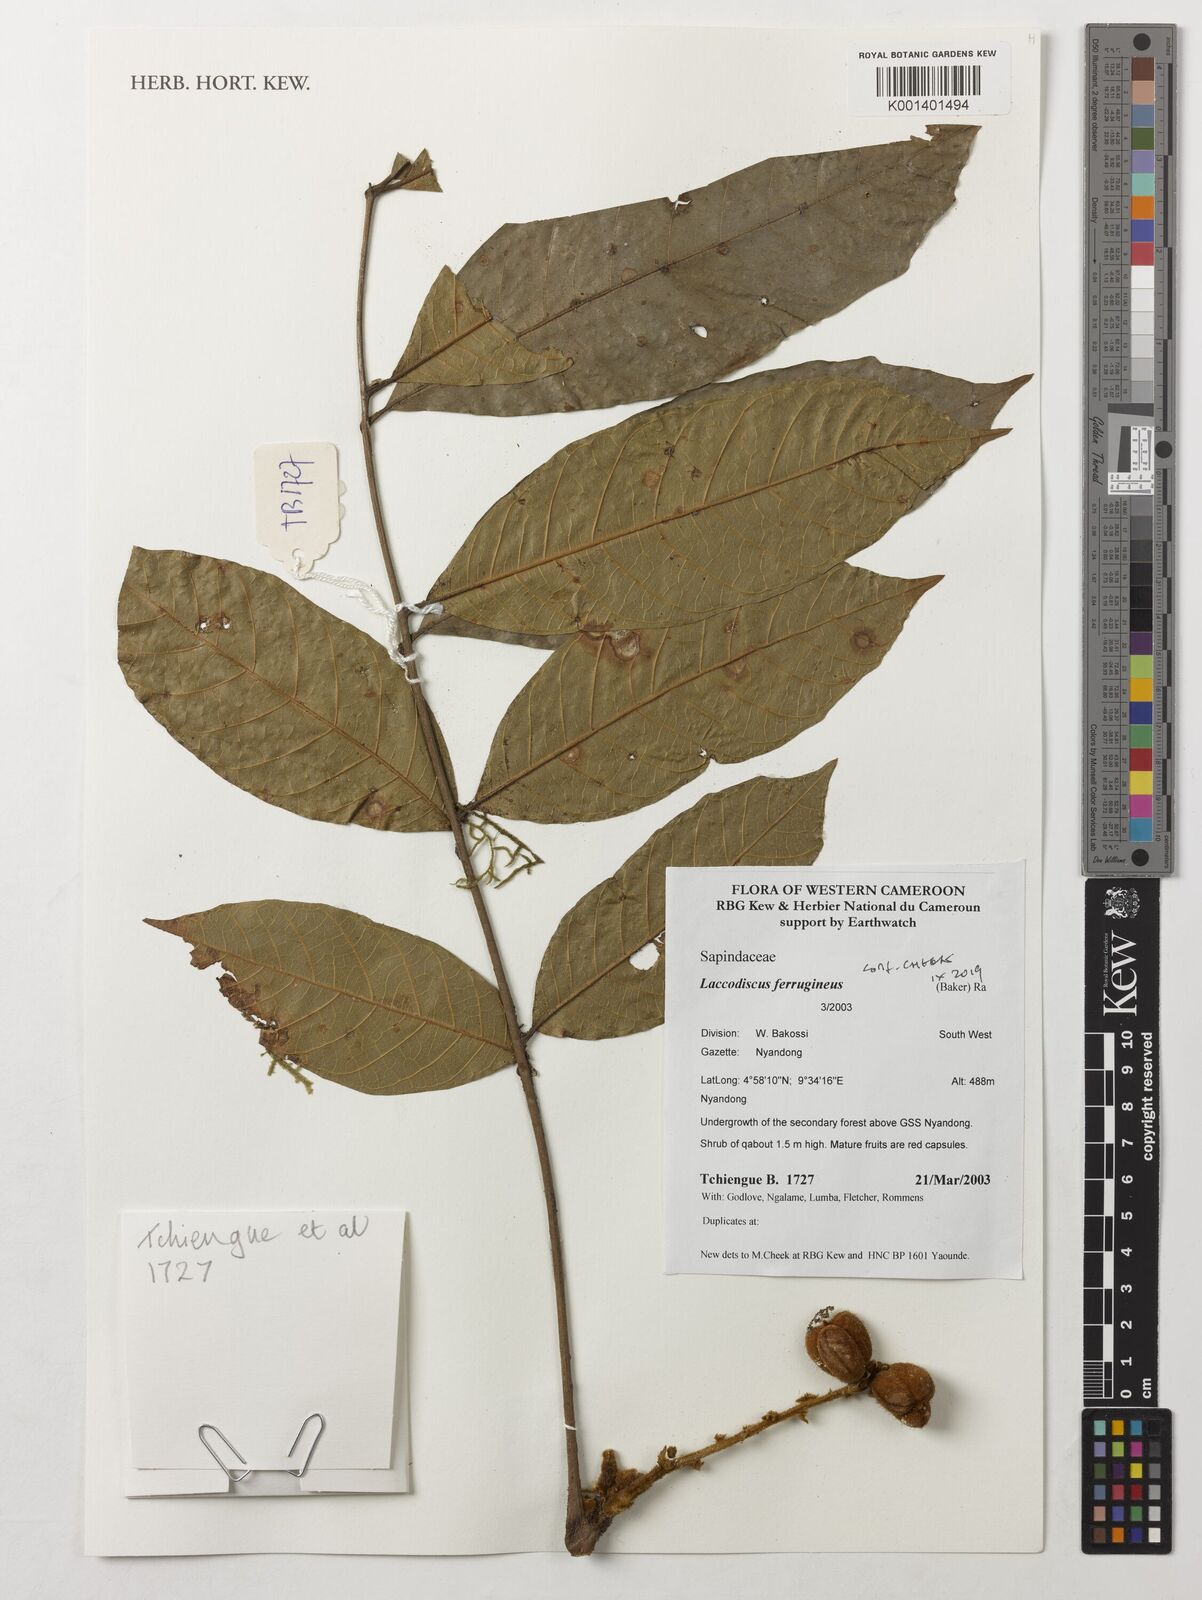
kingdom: Plantae
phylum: Tracheophyta
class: Magnoliopsida
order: Sapindales
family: Sapindaceae
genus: Laccodiscus
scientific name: Laccodiscus ferrugineus
